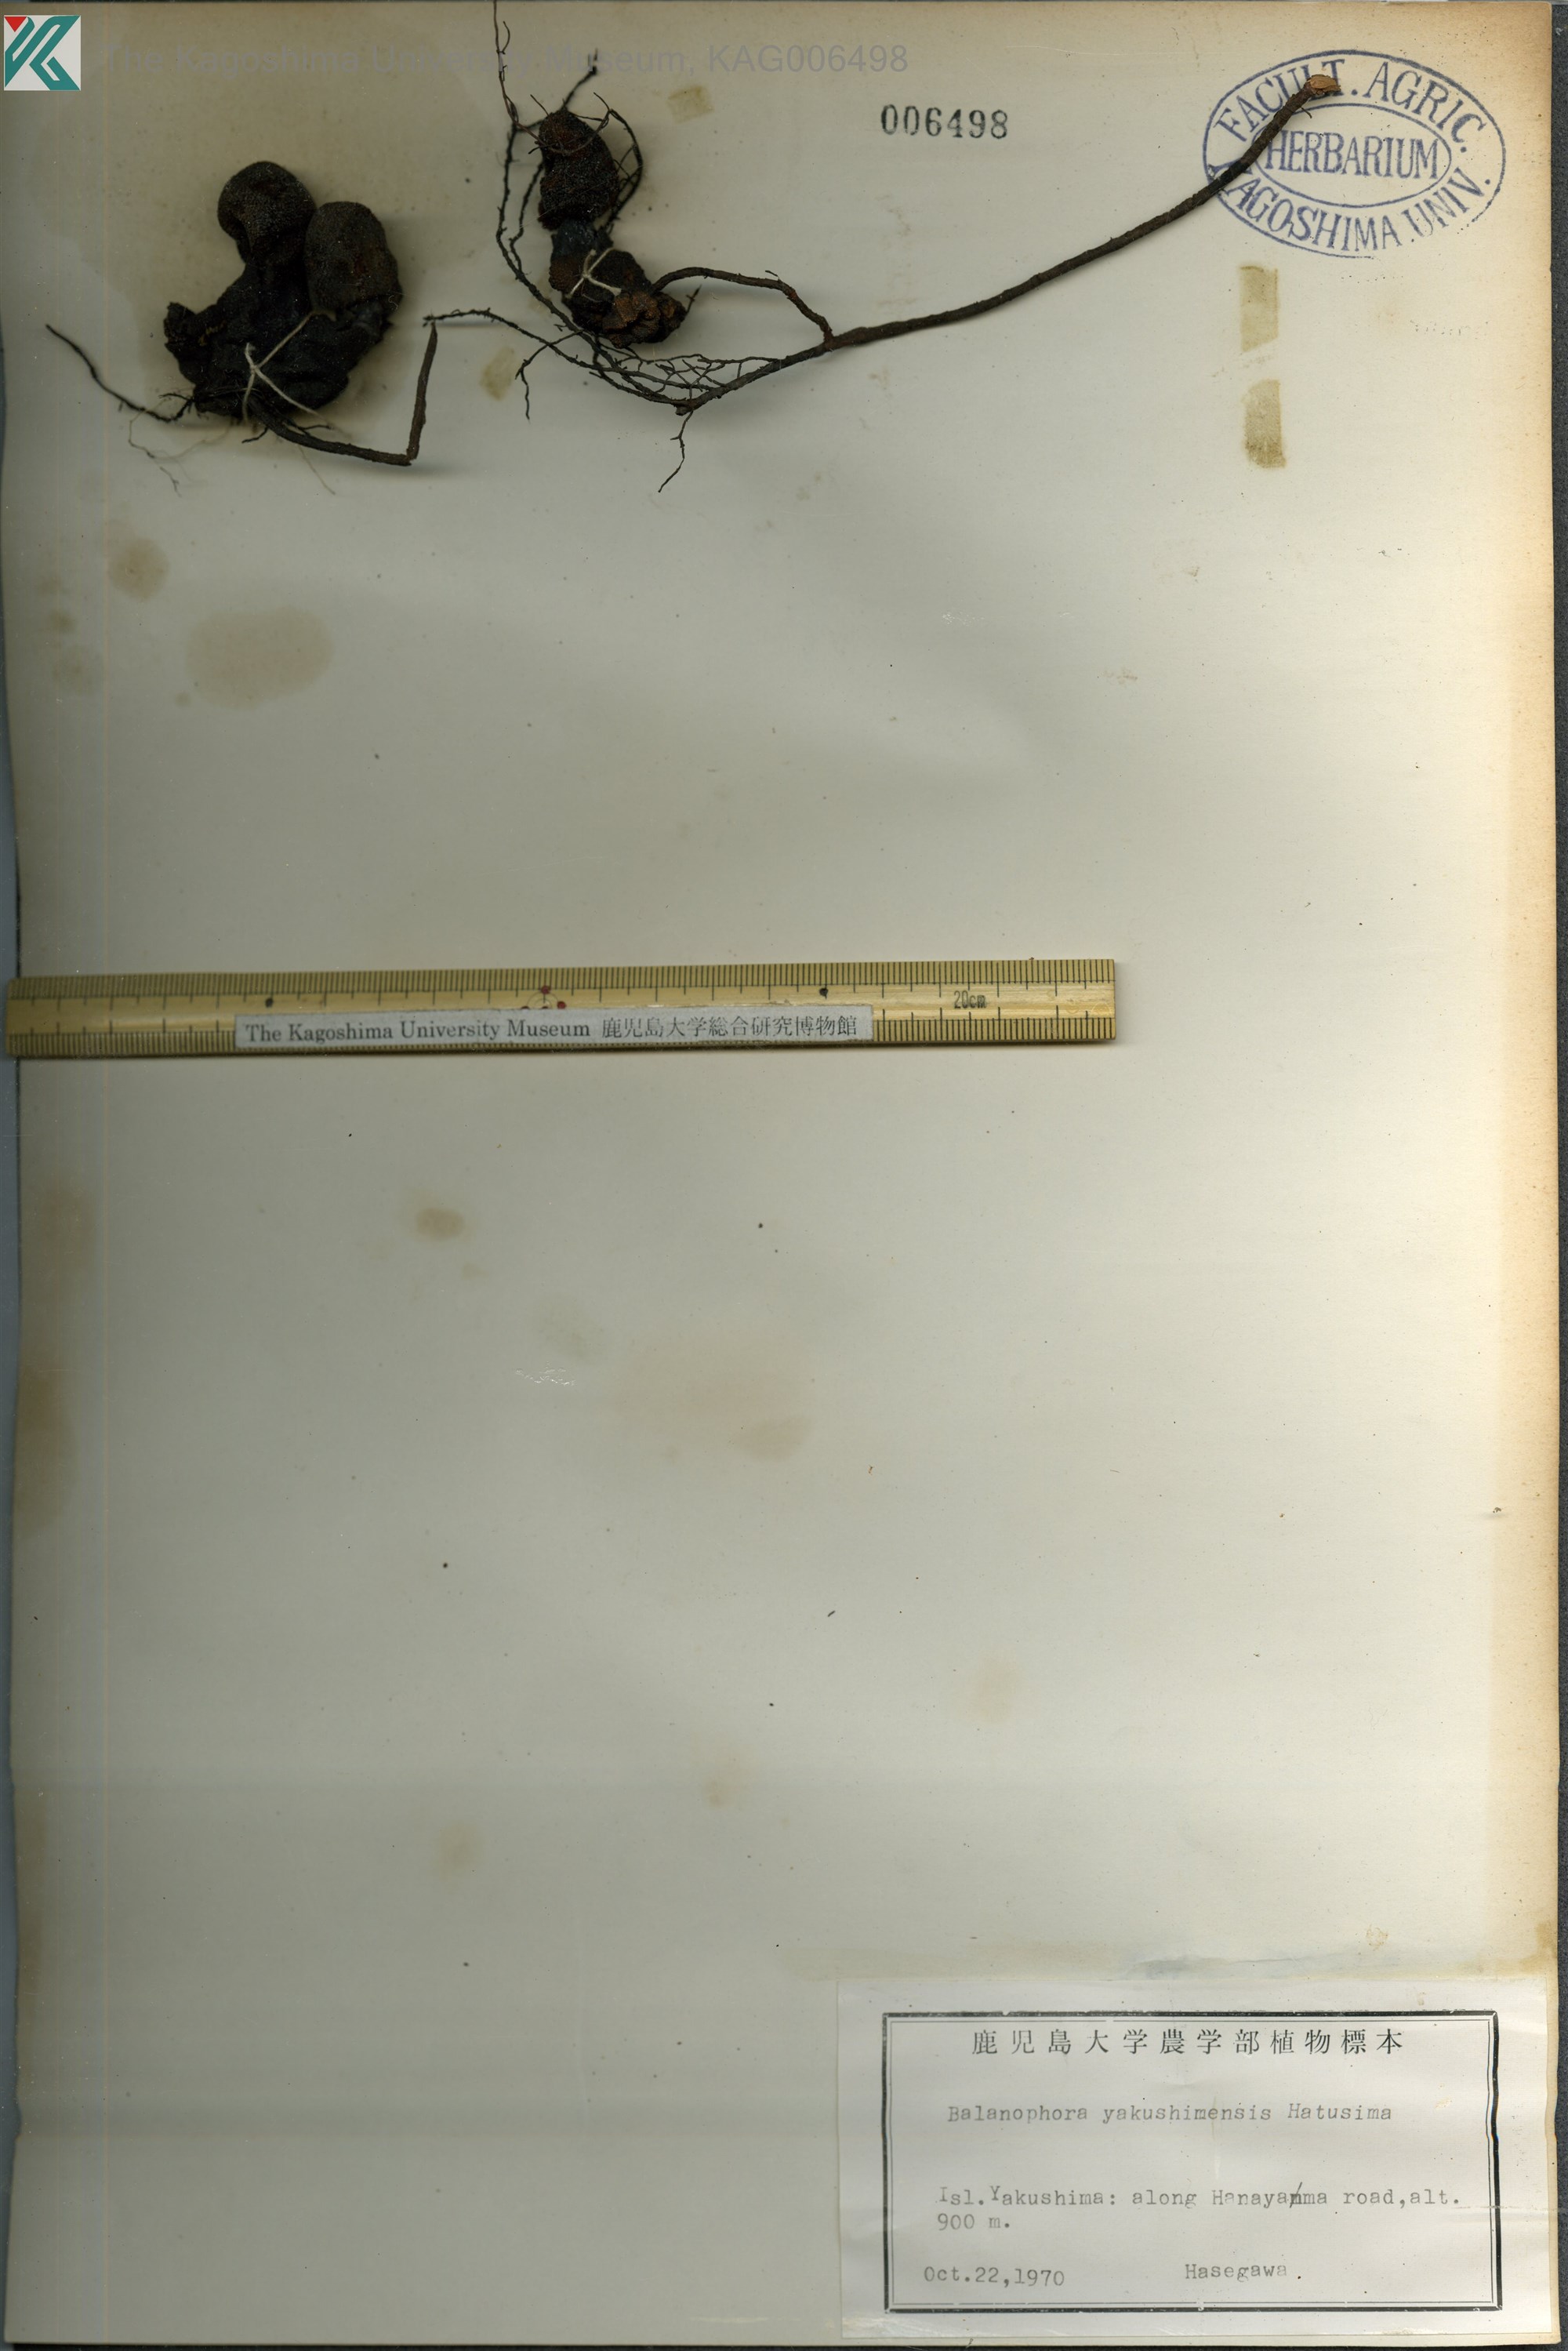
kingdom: Plantae
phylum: Tracheophyta
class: Magnoliopsida
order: Santalales
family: Balanophoraceae
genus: Balanophora
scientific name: Balanophora yakushimensis
